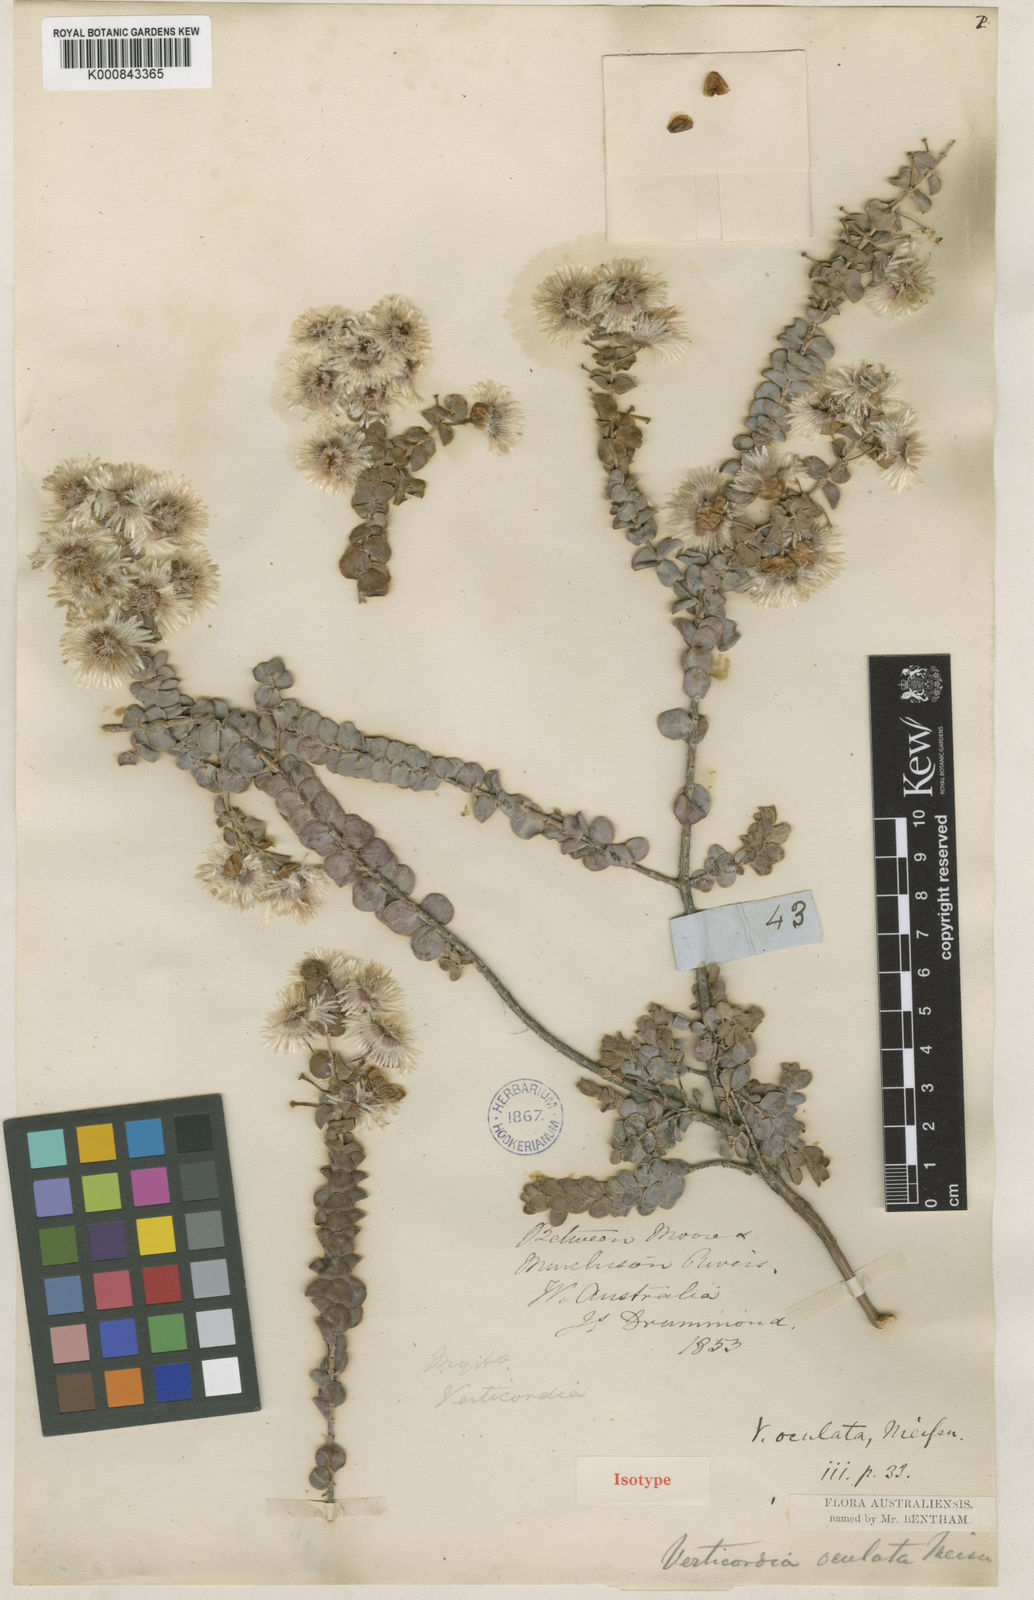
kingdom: Plantae
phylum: Tracheophyta
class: Magnoliopsida
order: Myrtales
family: Myrtaceae
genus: Verticordia
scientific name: Verticordia oculata
